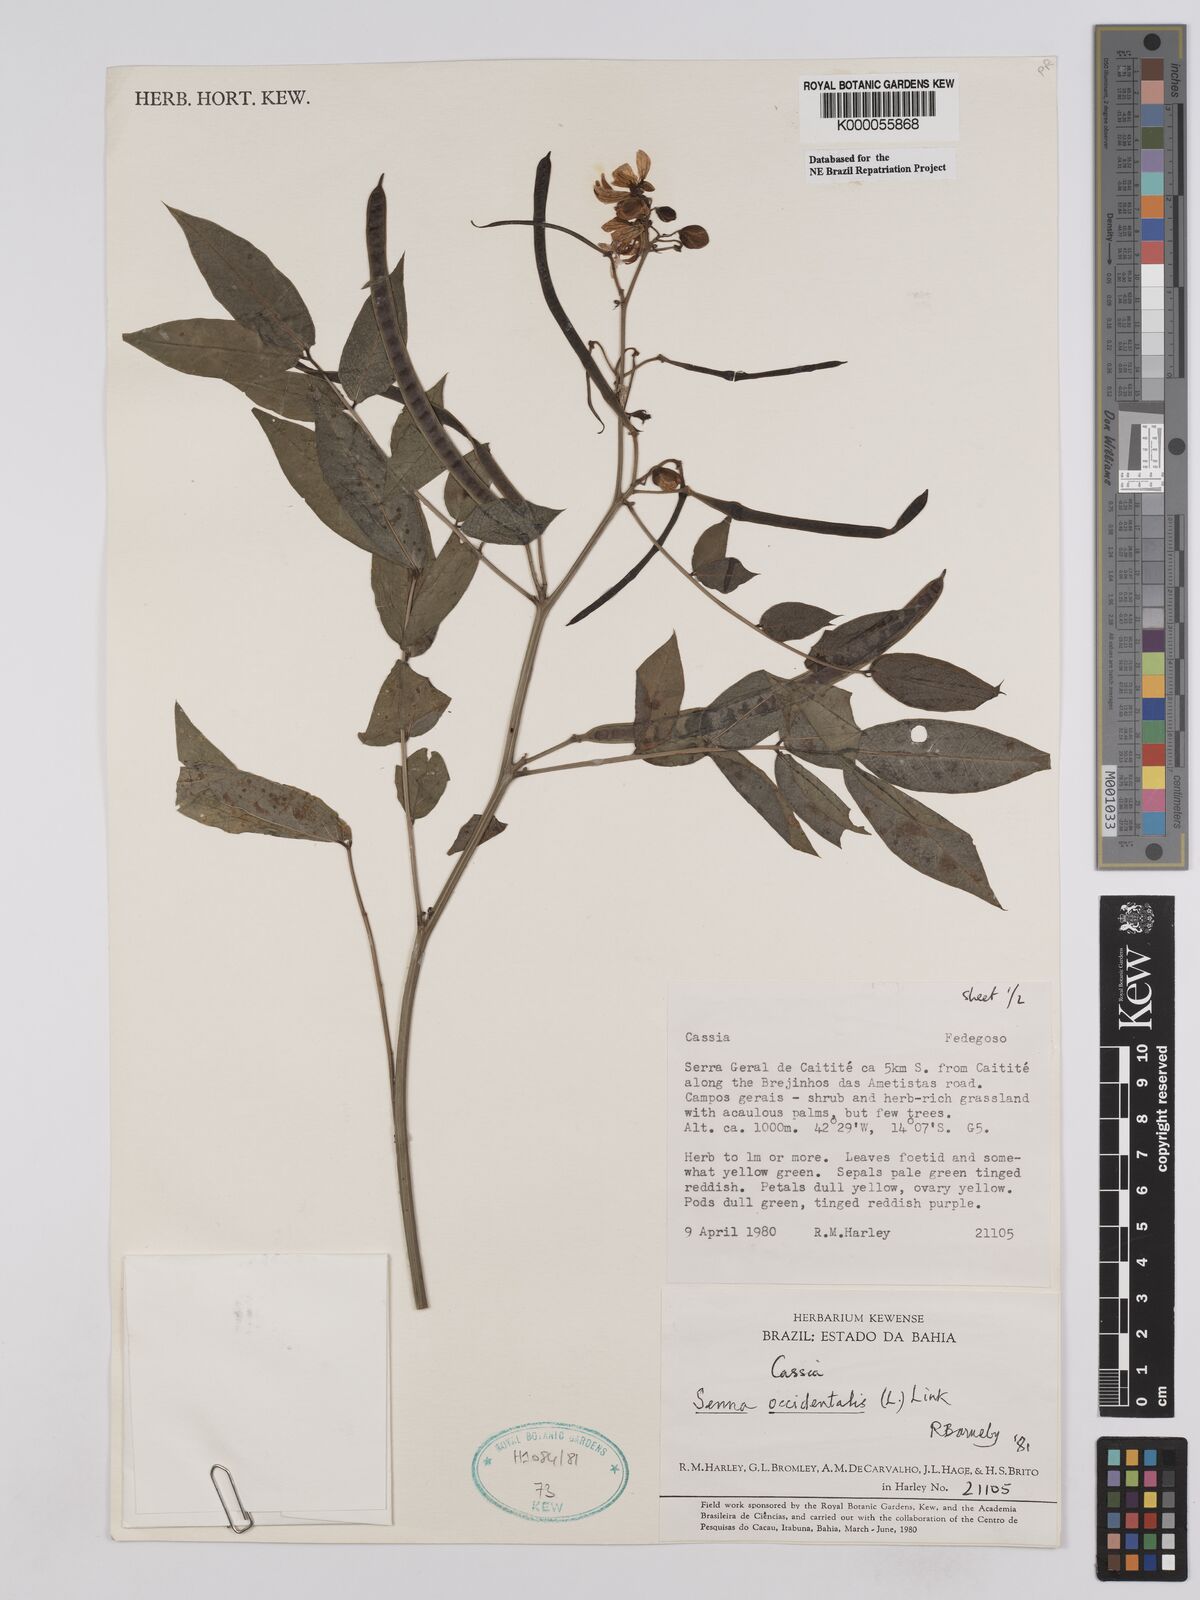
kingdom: Plantae
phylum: Tracheophyta
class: Magnoliopsida
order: Fabales
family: Fabaceae
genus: Senna
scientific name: Senna occidentalis
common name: Septicweed
